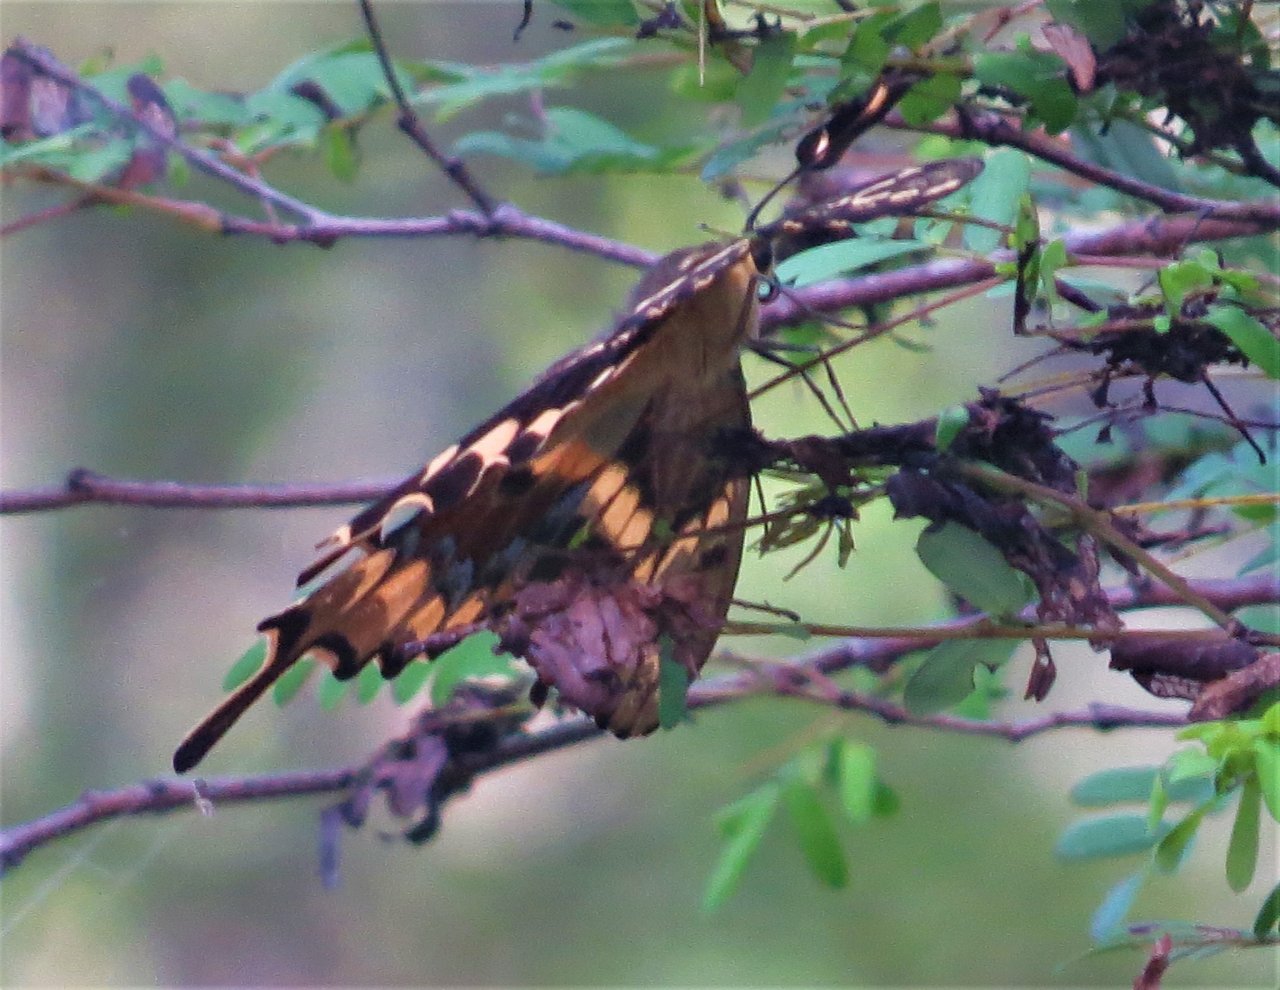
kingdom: Animalia
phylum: Arthropoda
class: Insecta
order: Lepidoptera
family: Papilionidae
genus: Heraclides
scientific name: Heraclides ponceana
